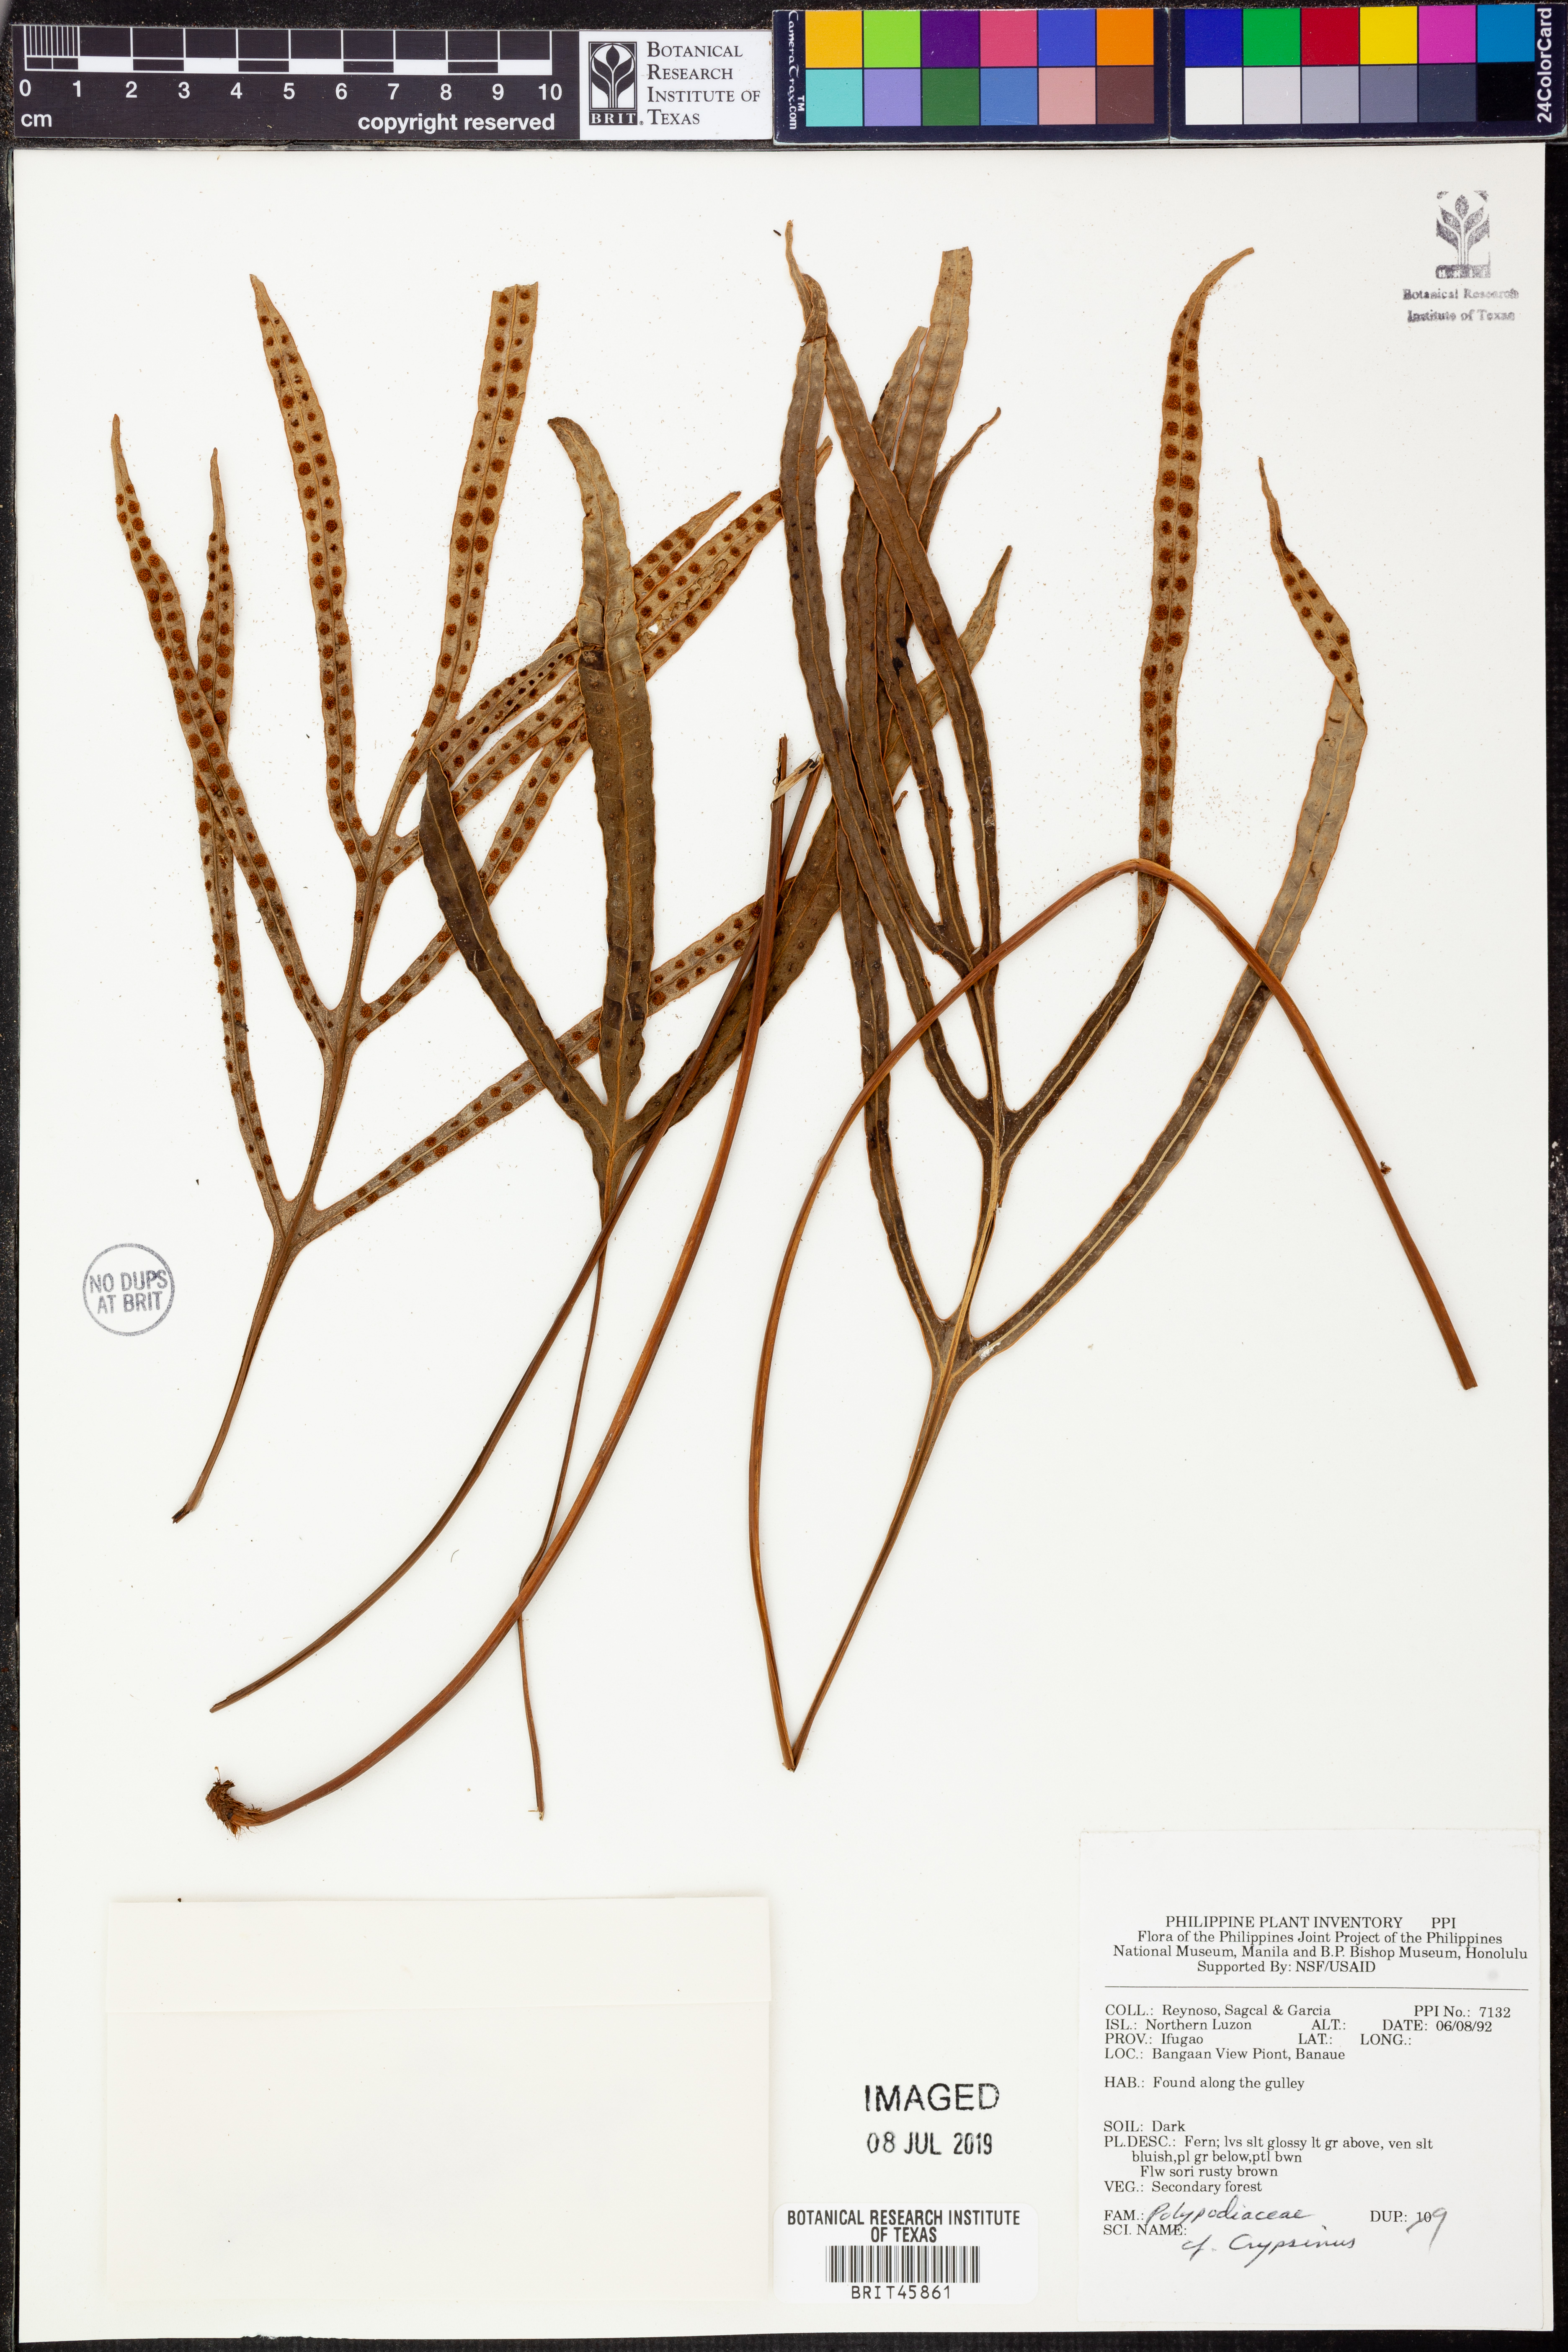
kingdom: Animalia
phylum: Arthropoda
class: Insecta
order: Hemiptera
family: Pentatomidae
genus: Crypsinus
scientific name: Crypsinus
